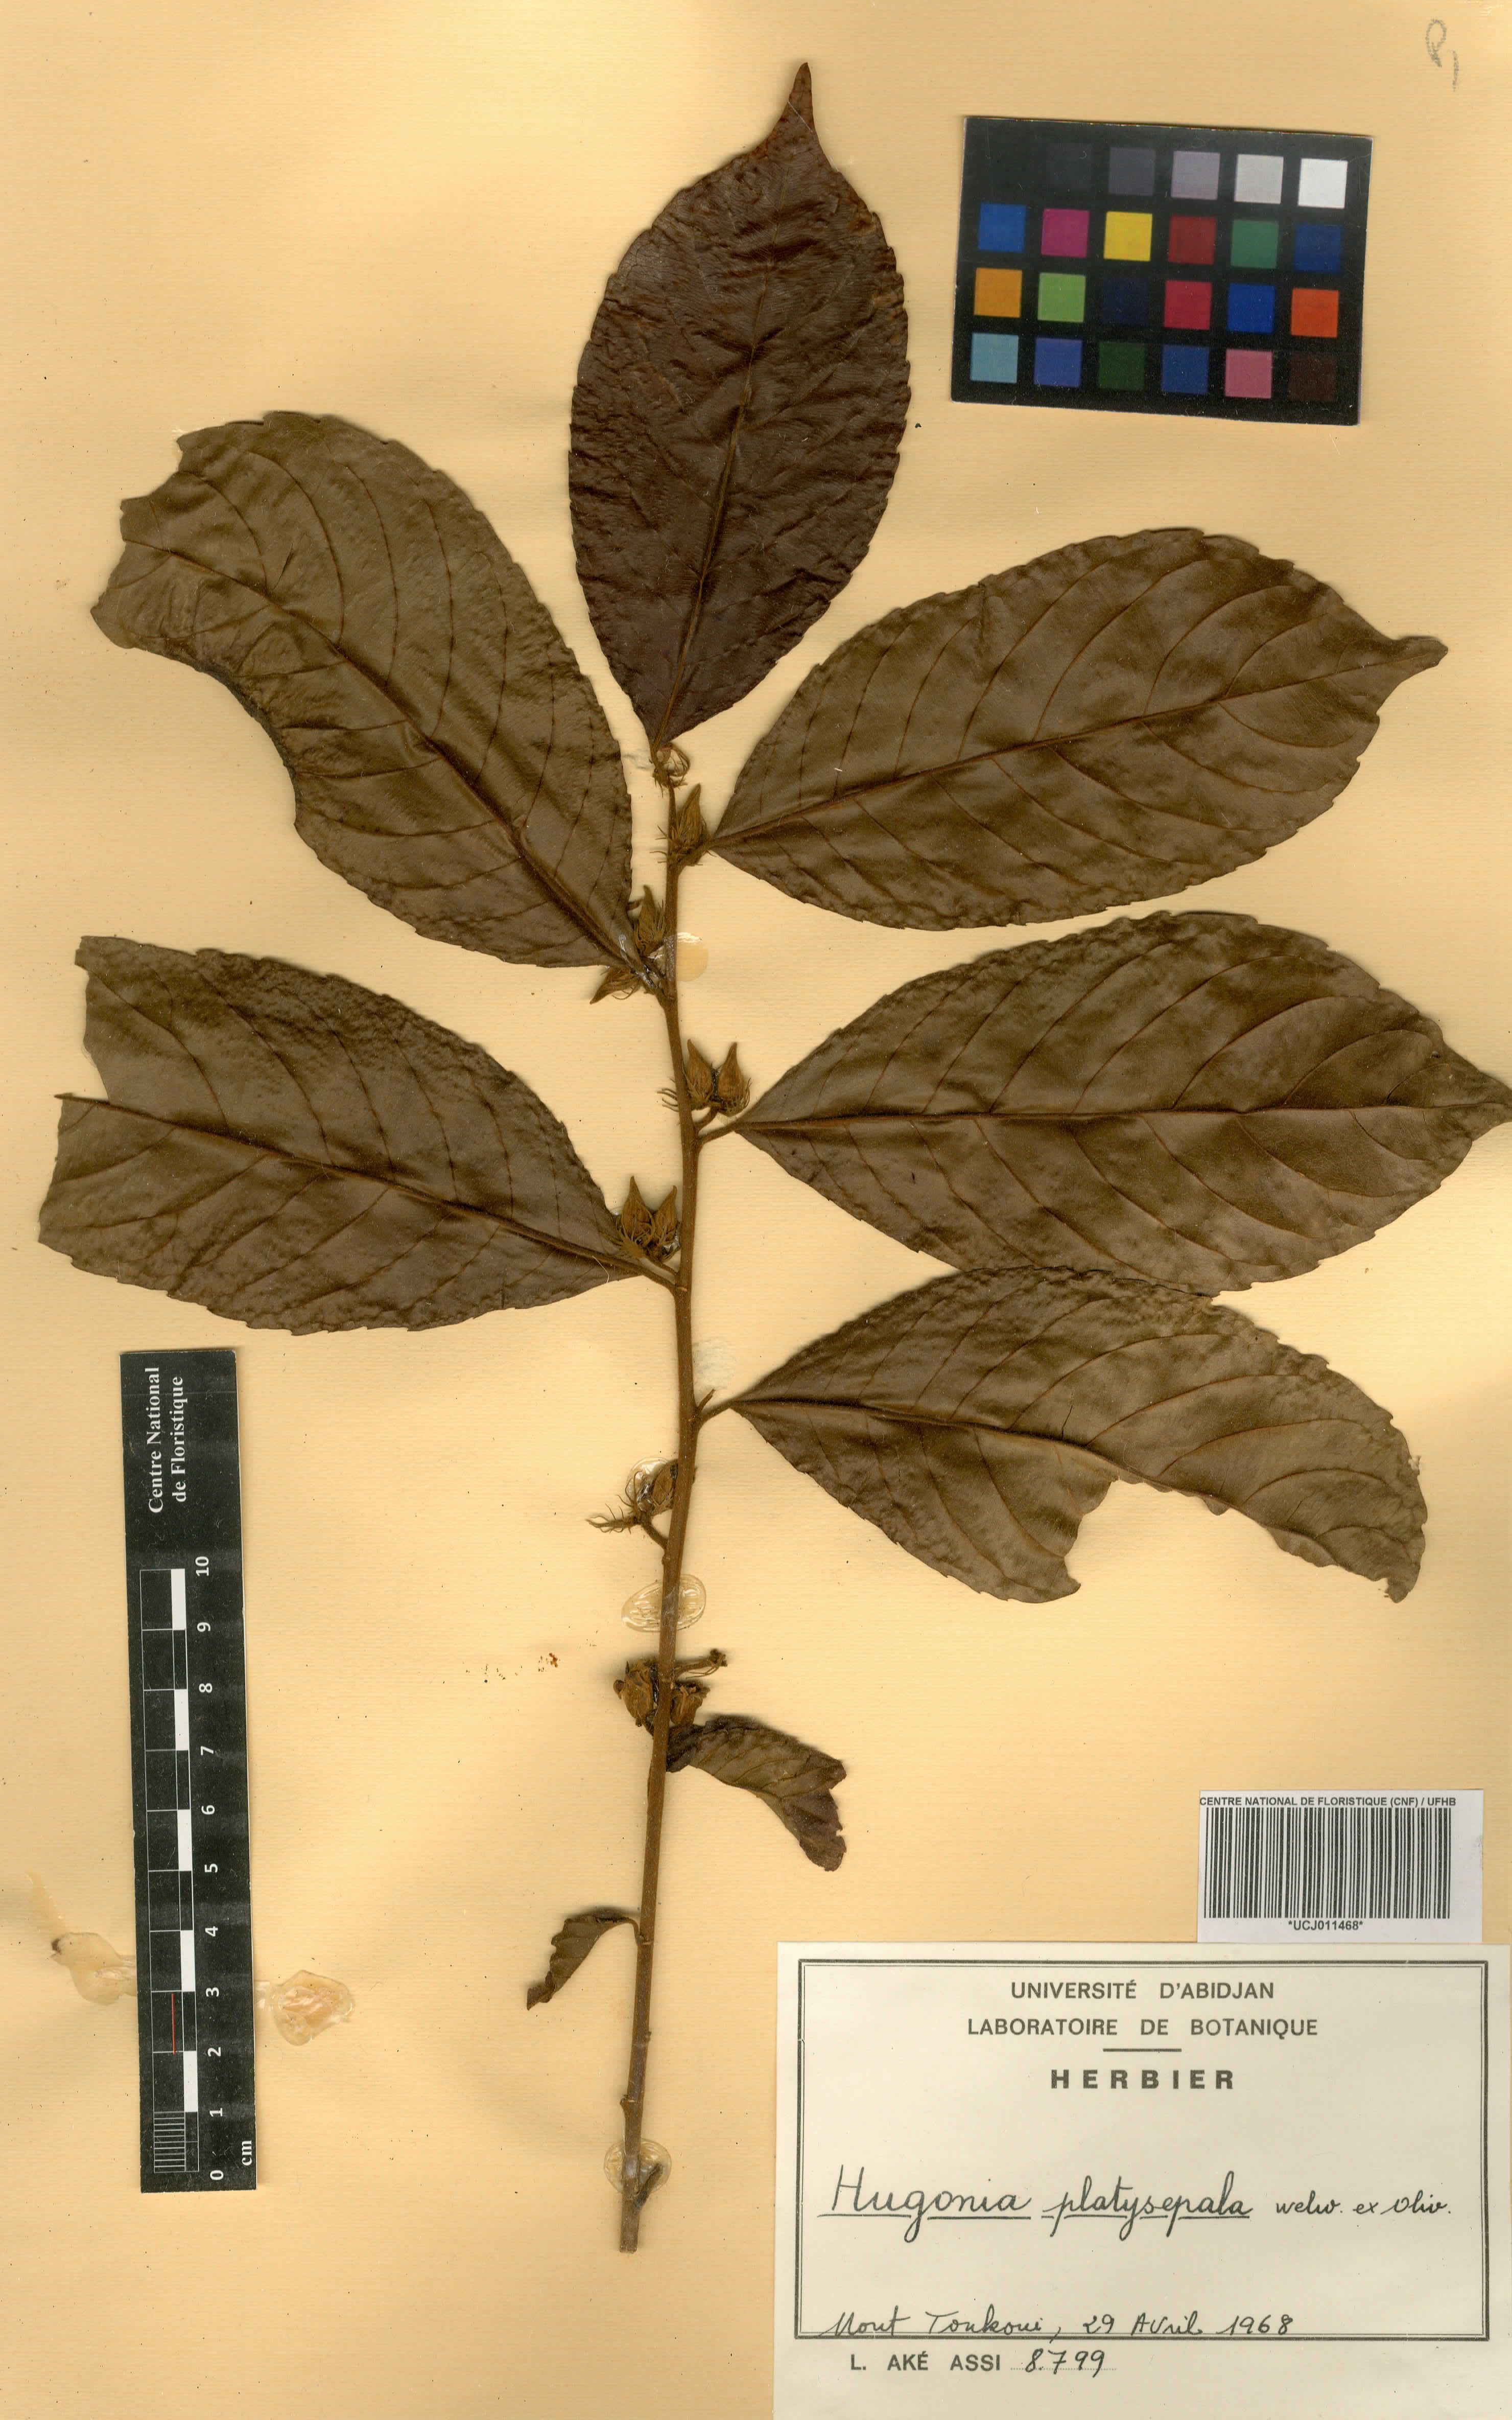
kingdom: Plantae
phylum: Tracheophyta
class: Magnoliopsida
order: Malpighiales
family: Linaceae
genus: Hugonia
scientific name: Hugonia platysepala
